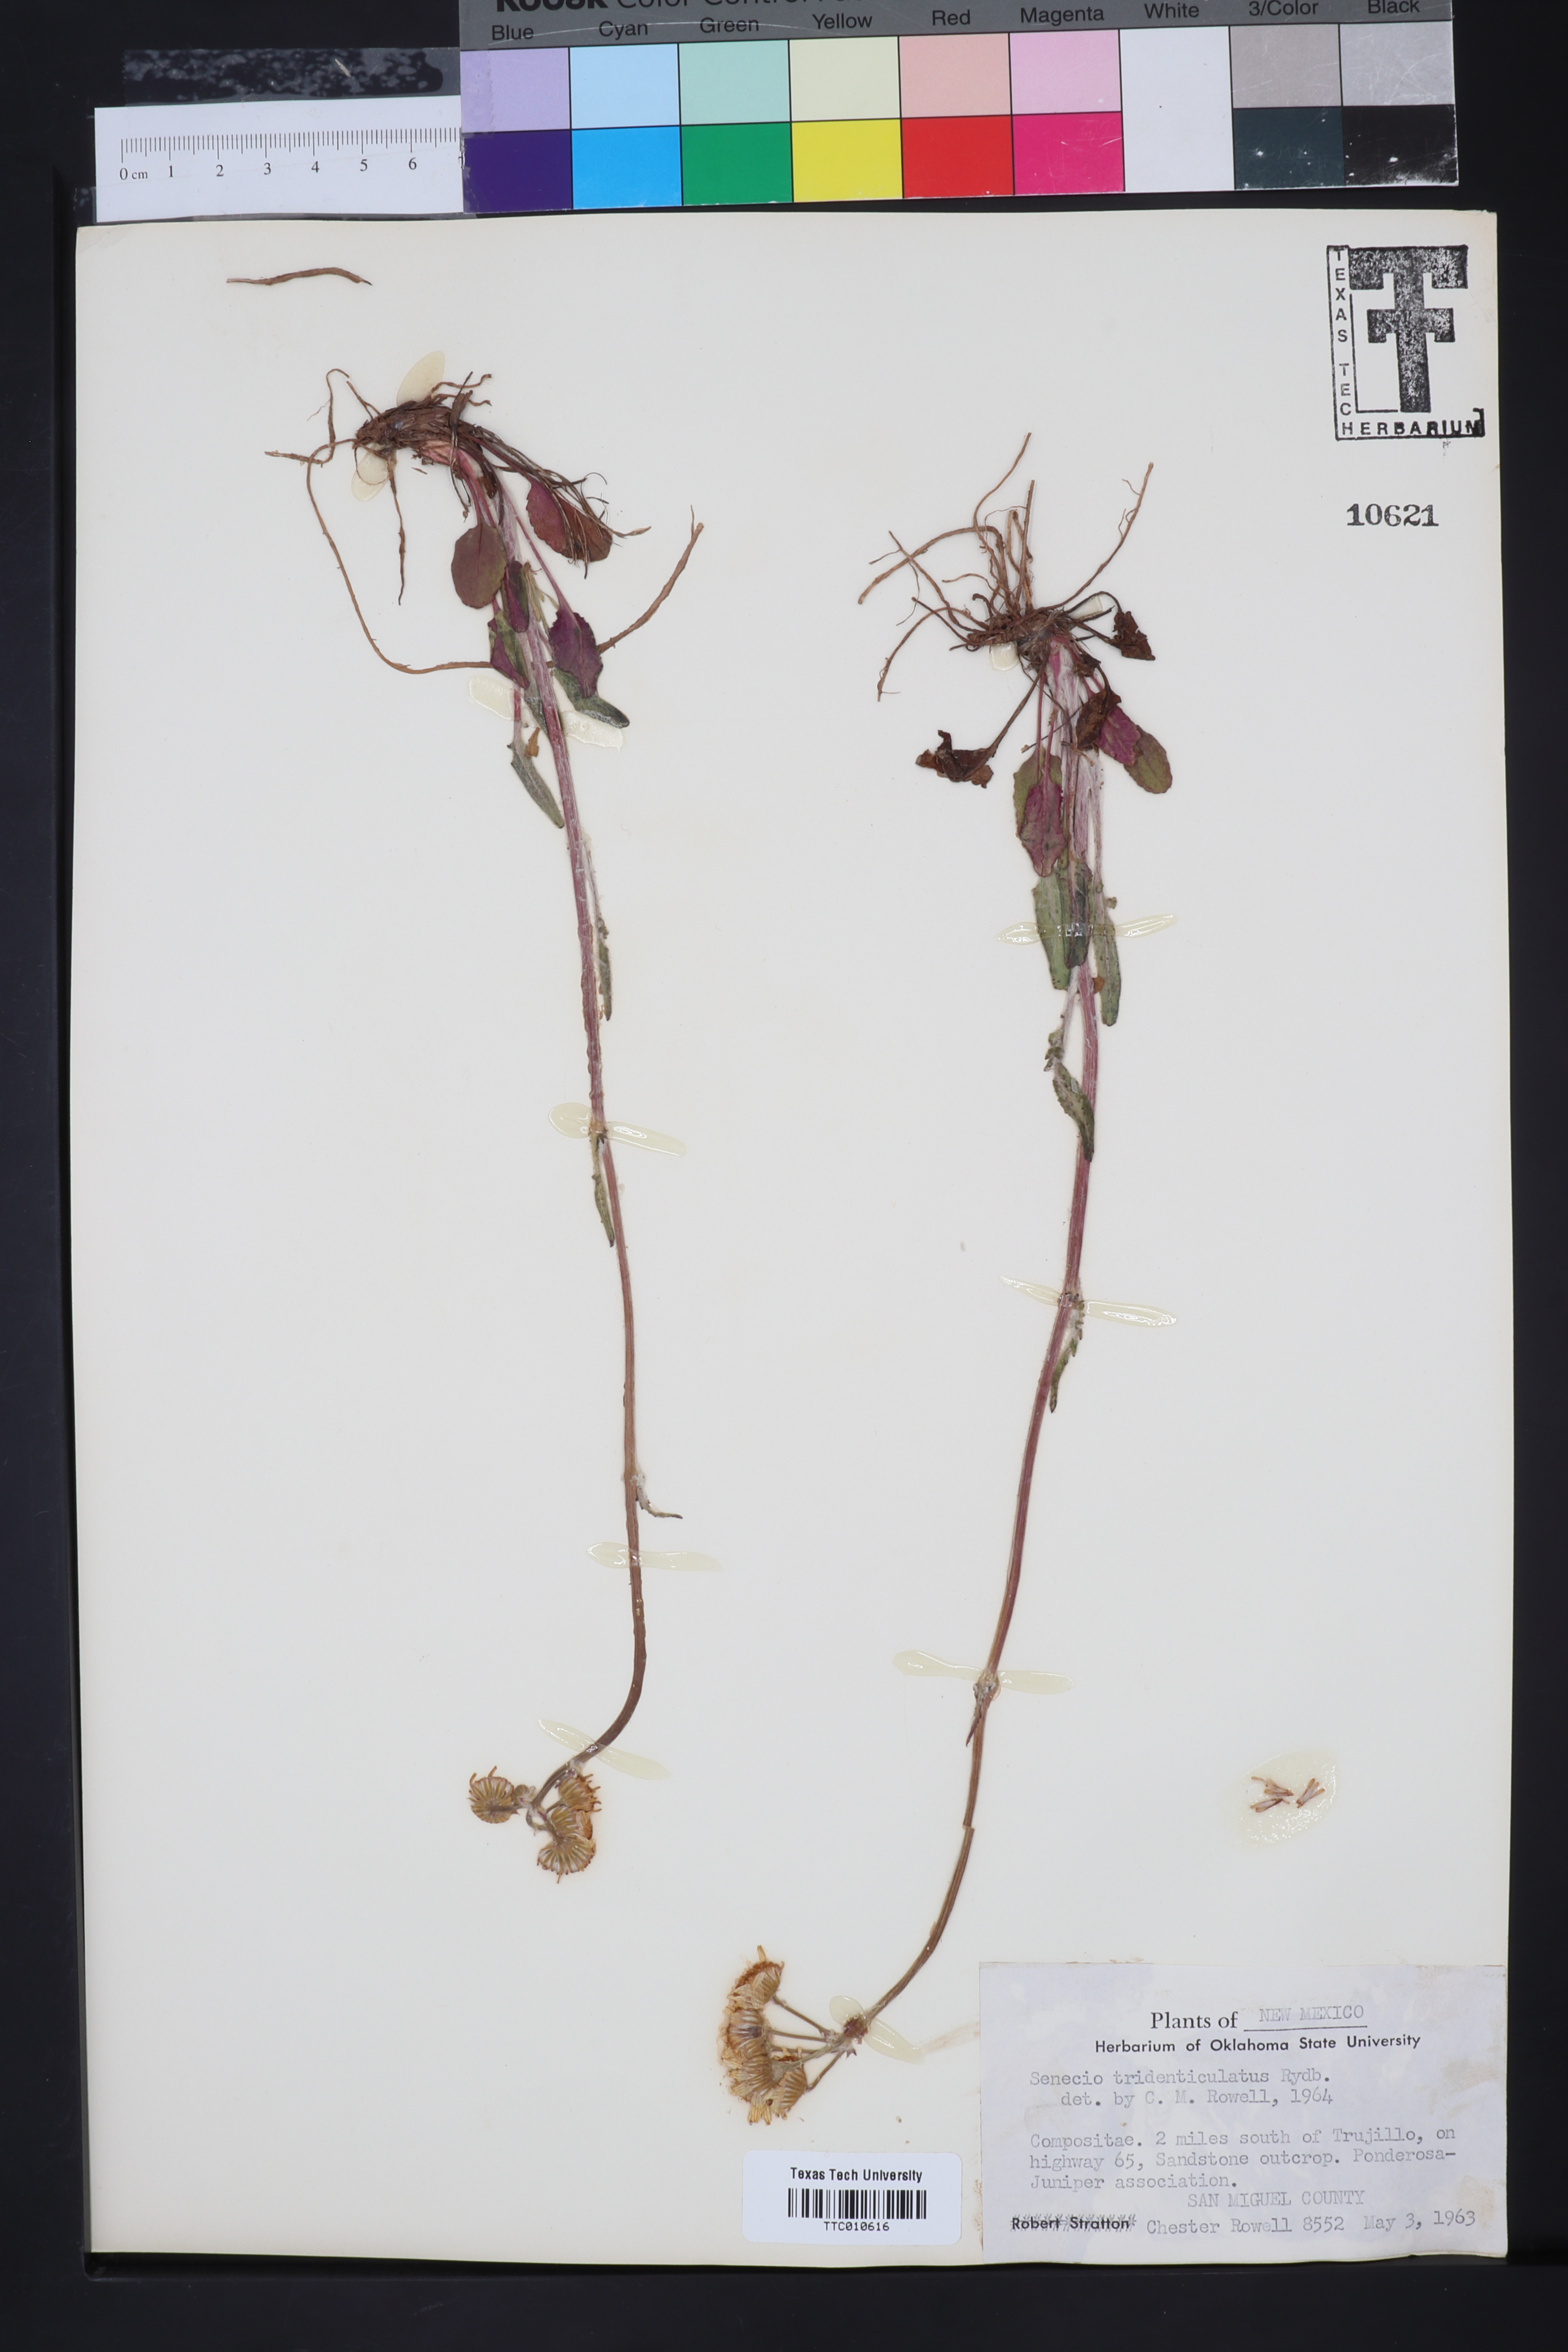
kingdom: Plantae
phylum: Tracheophyta
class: Magnoliopsida
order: Asterales
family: Asteraceae
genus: Packera
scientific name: Packera thurberi
